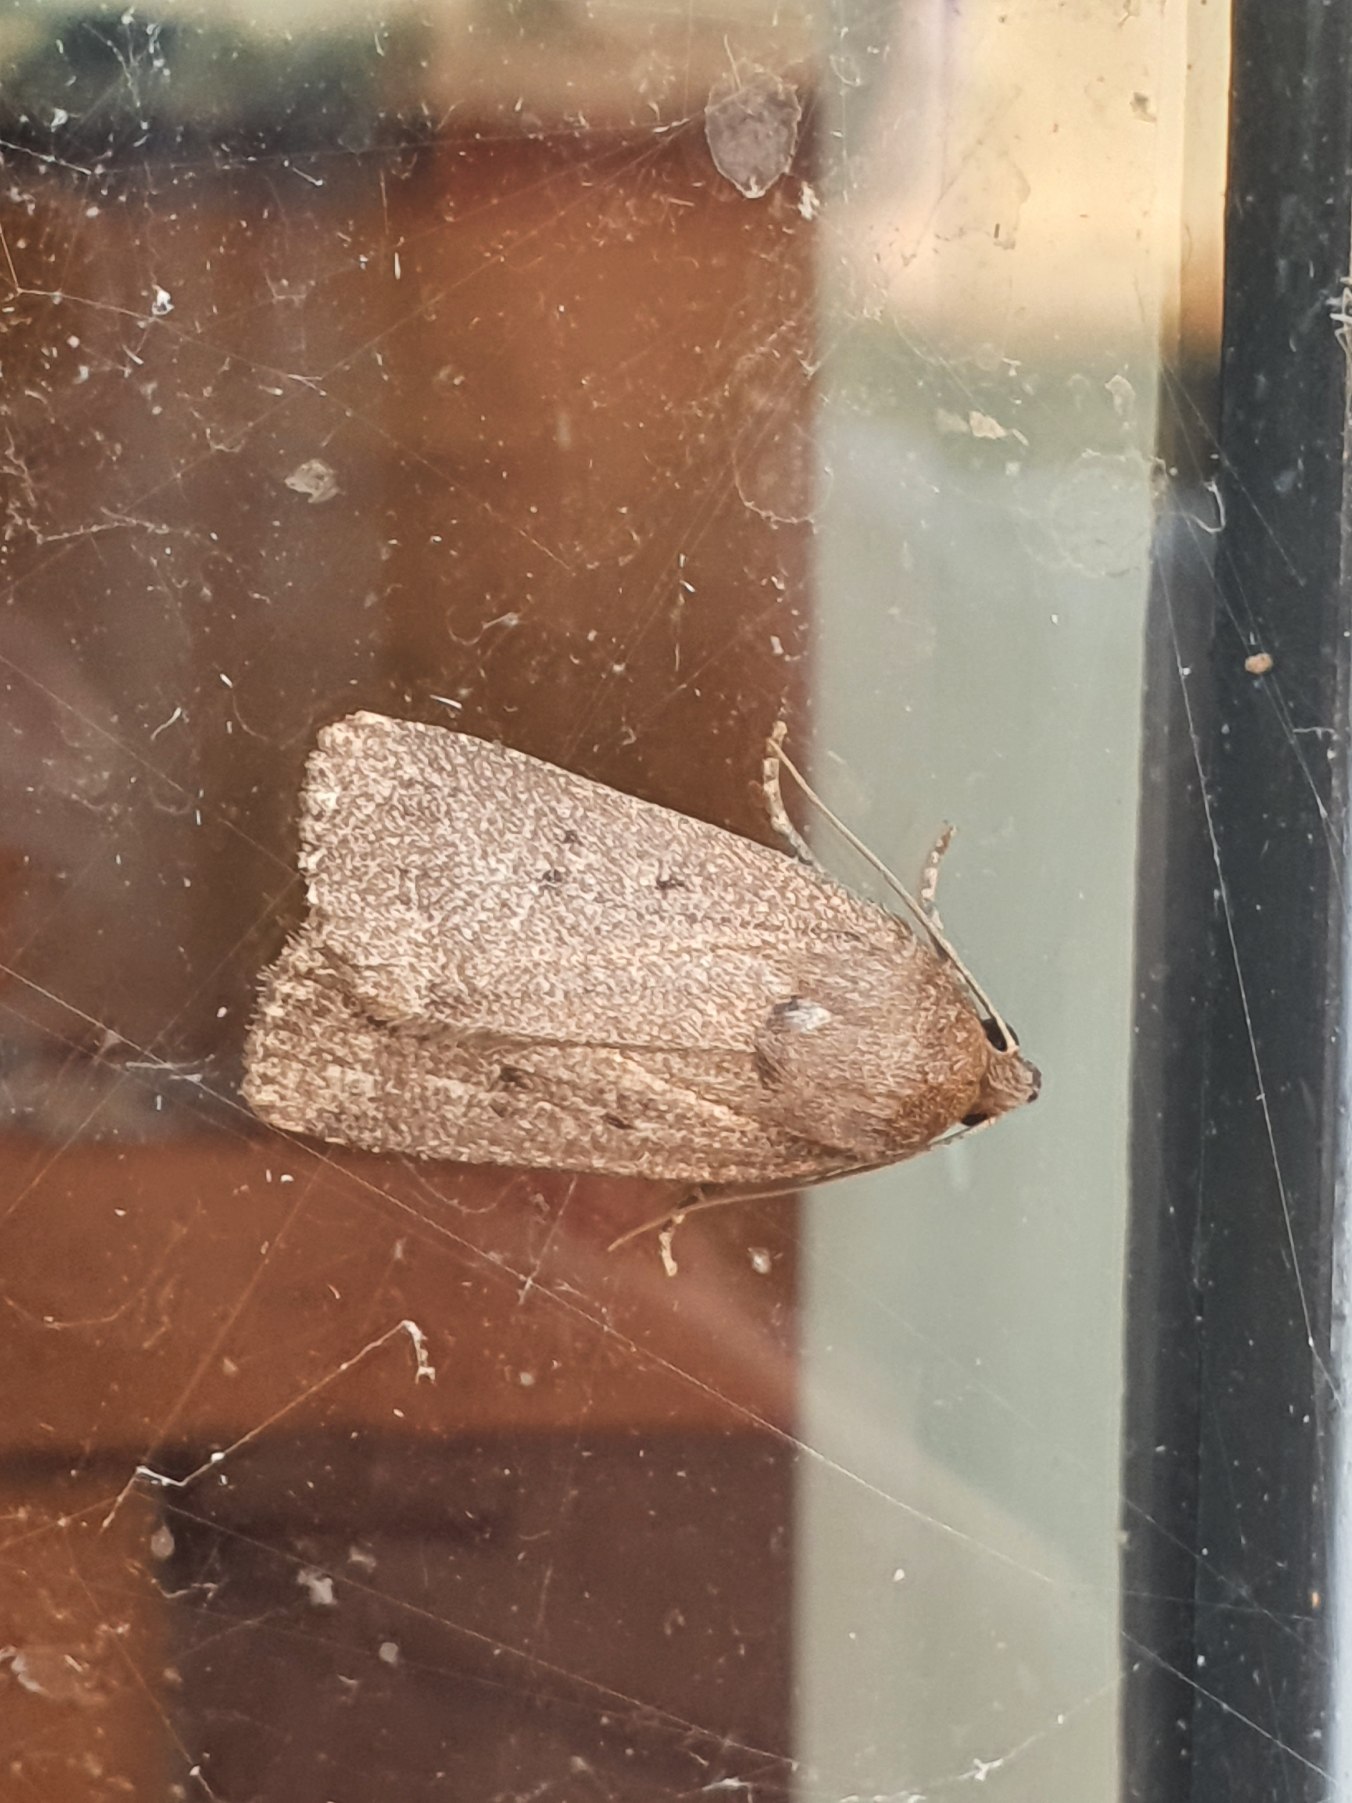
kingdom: Animalia
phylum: Arthropoda
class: Insecta
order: Lepidoptera
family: Noctuidae
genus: Amphipyra
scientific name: Amphipyra tragopoginis
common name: Blyantsugle
